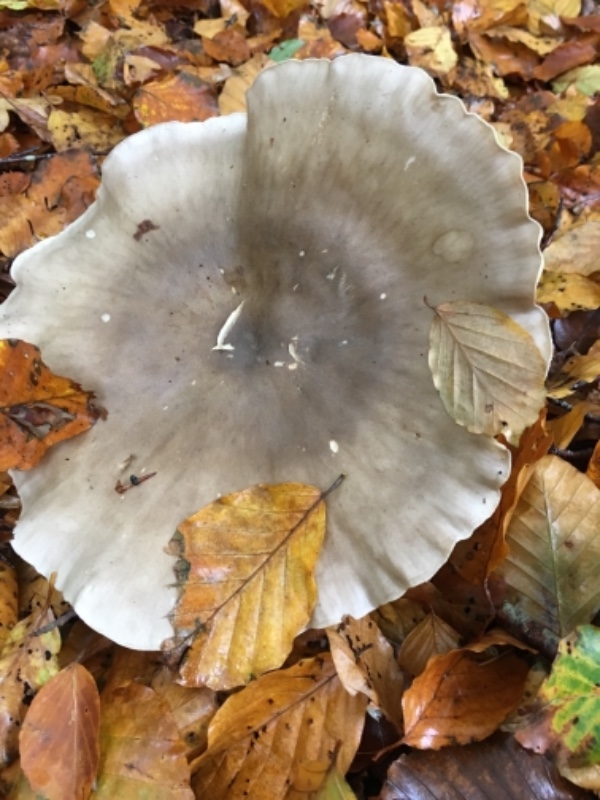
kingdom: Fungi
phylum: Basidiomycota
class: Agaricomycetes
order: Agaricales
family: Tricholomataceae
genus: Clitocybe
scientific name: Clitocybe nebularis
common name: tåge-tragthat
